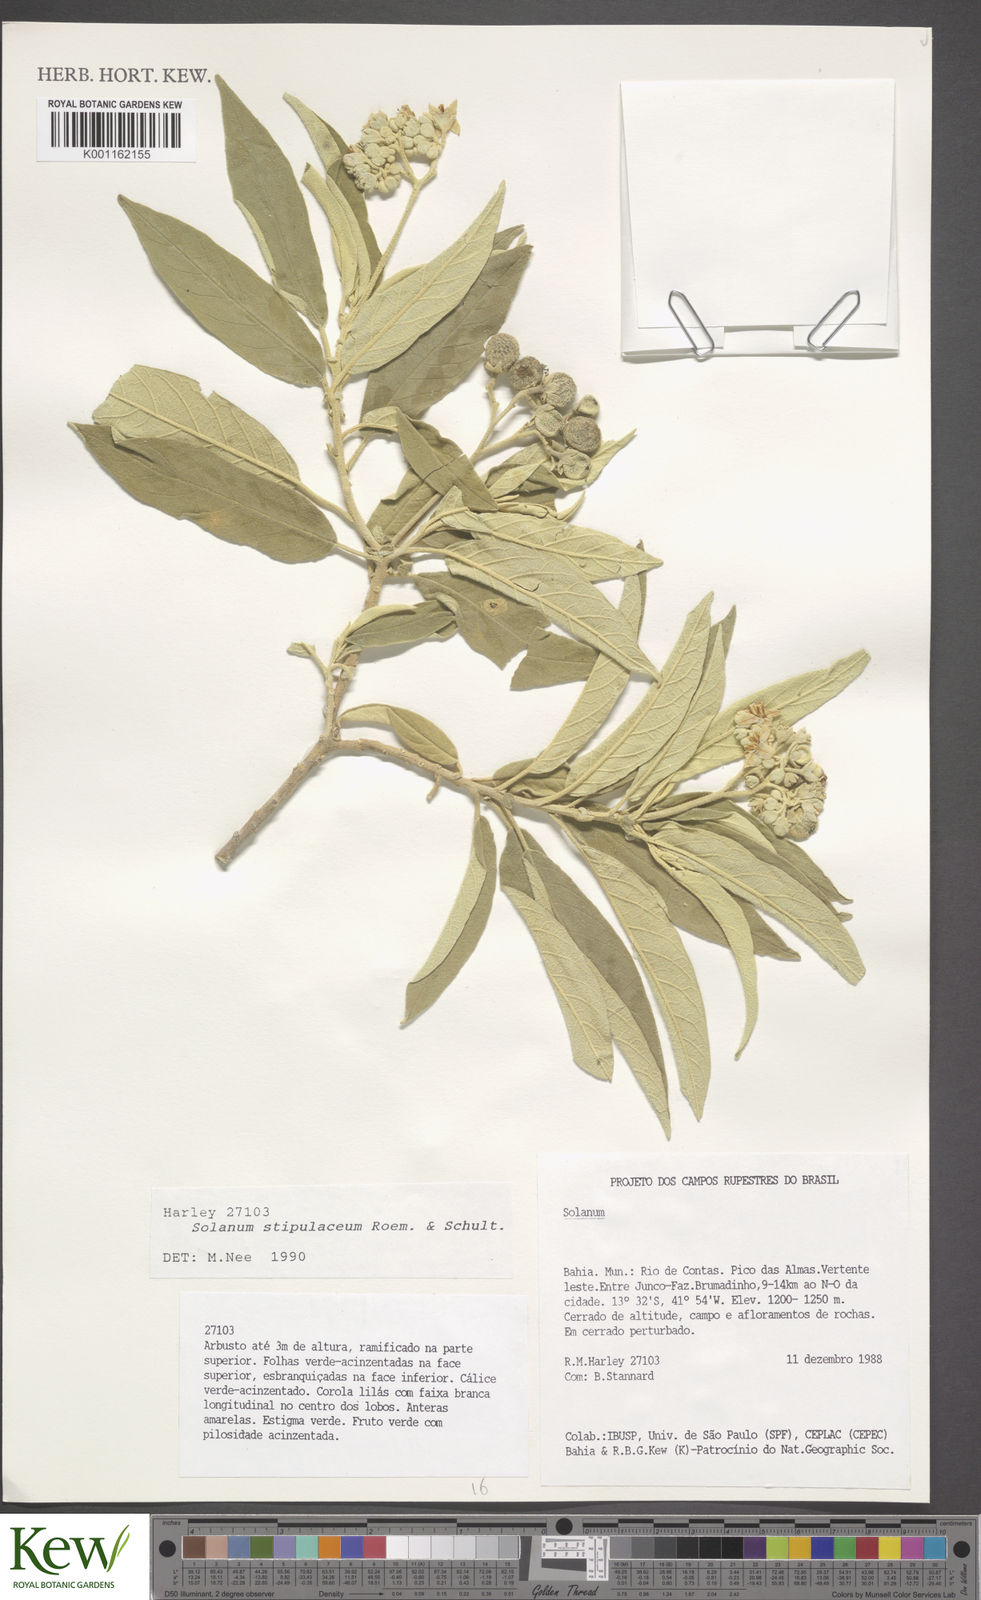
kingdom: Plantae
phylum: Tracheophyta
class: Magnoliopsida
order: Solanales
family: Solanaceae
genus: Solanum
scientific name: Solanum stipulaceum
